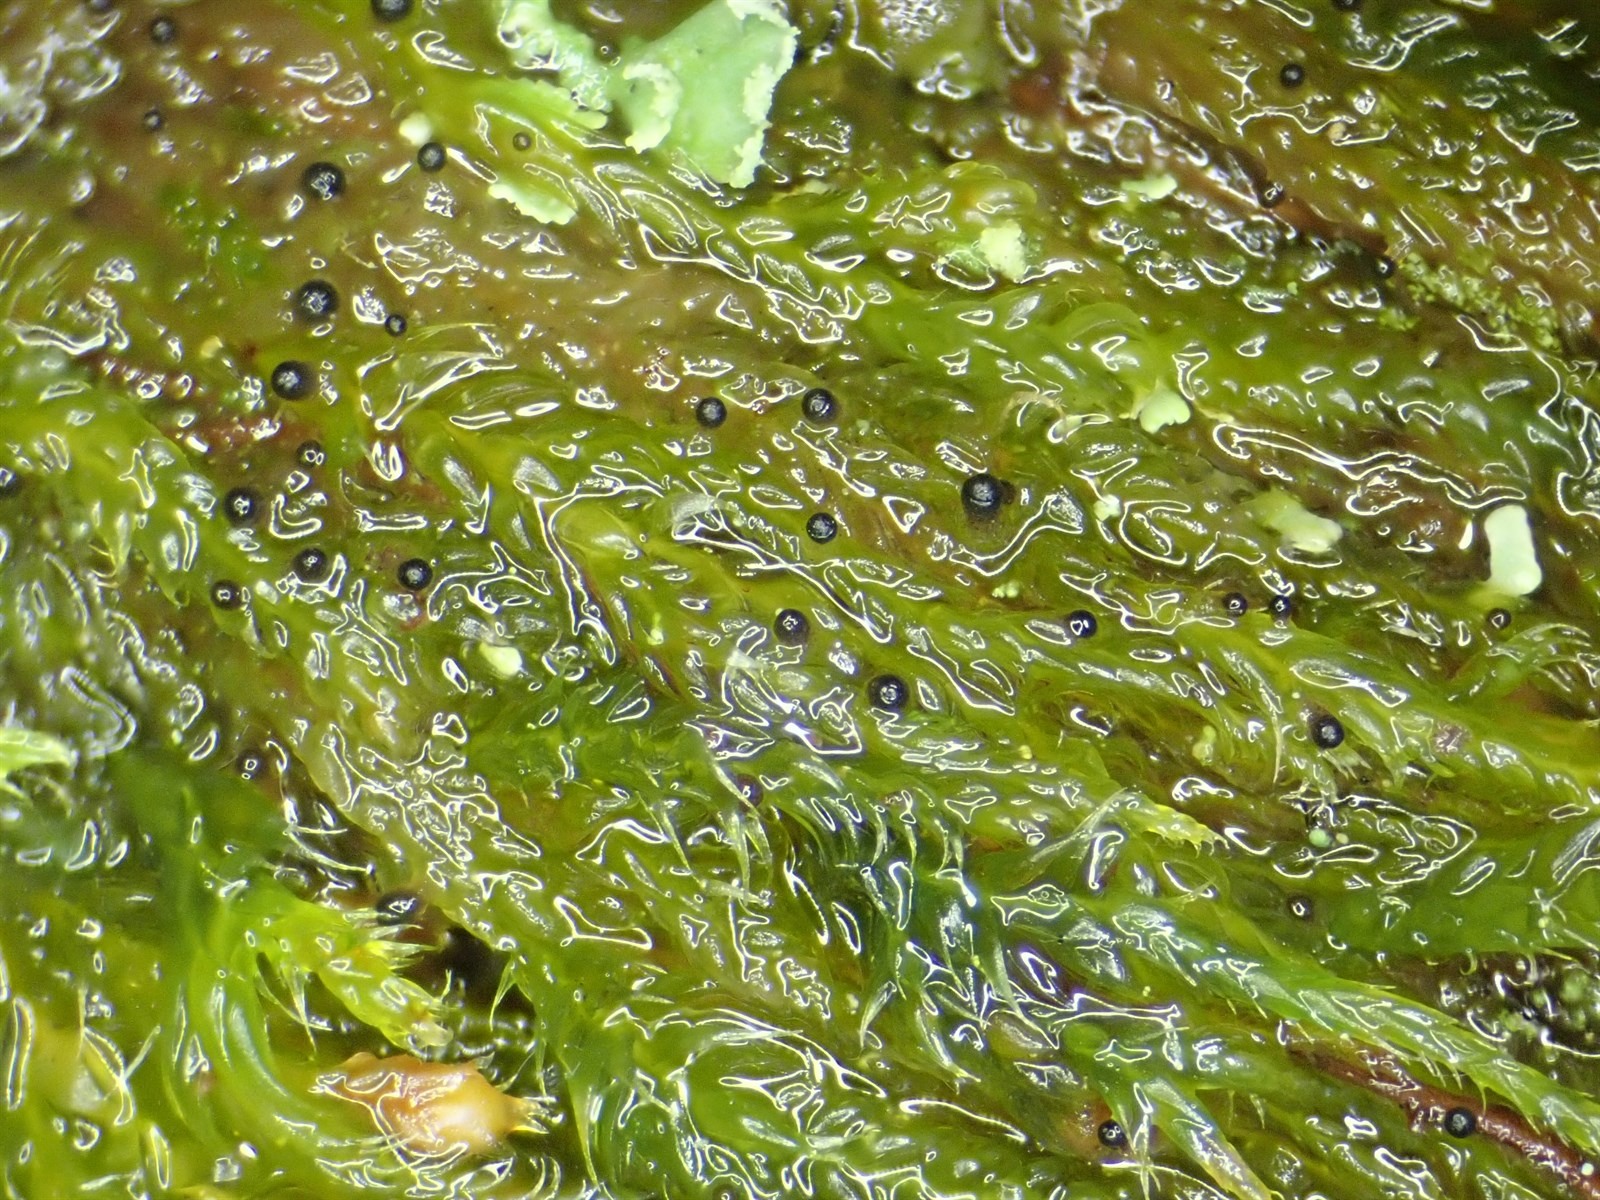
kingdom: Protozoa
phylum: Mycetozoa
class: Myxomycetes
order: Cribrariales
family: Liceaceae
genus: Licea
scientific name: Licea rugosa
